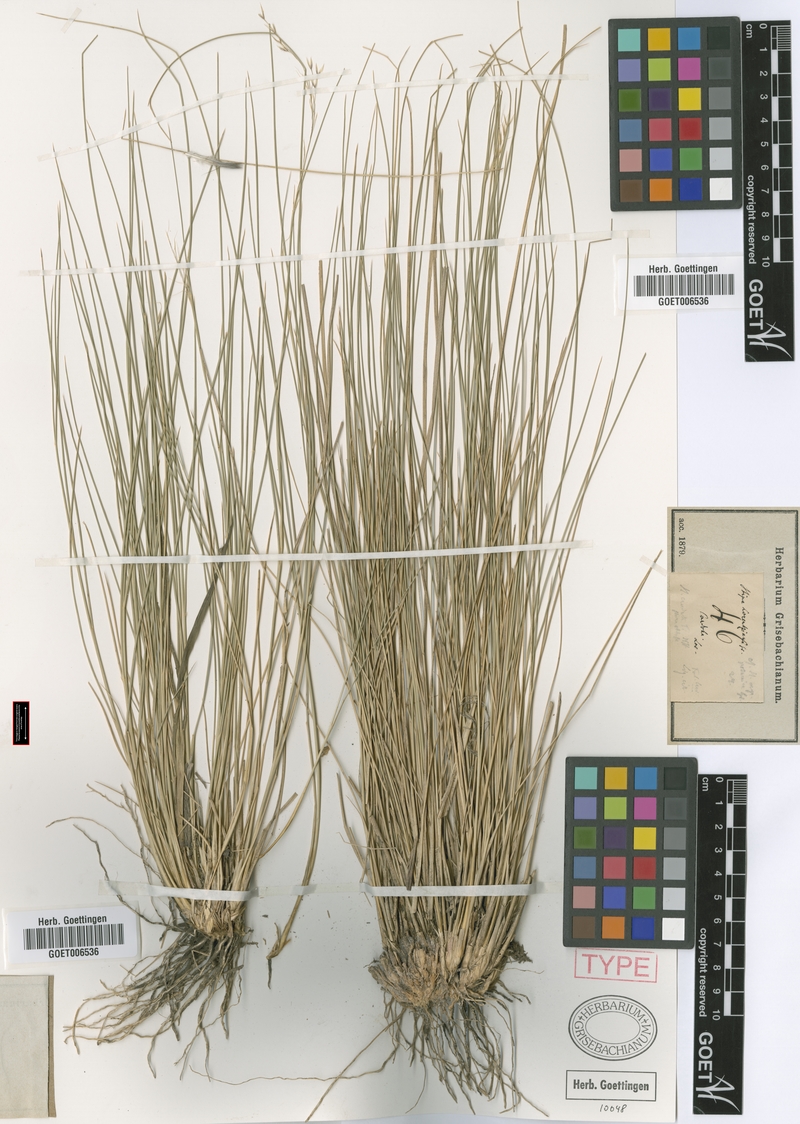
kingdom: Plantae
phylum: Tracheophyta
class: Liliopsida
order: Poales
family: Poaceae
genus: Amelichloa
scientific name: Amelichloa brachychaeta
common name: Shortbristled needlegrass
